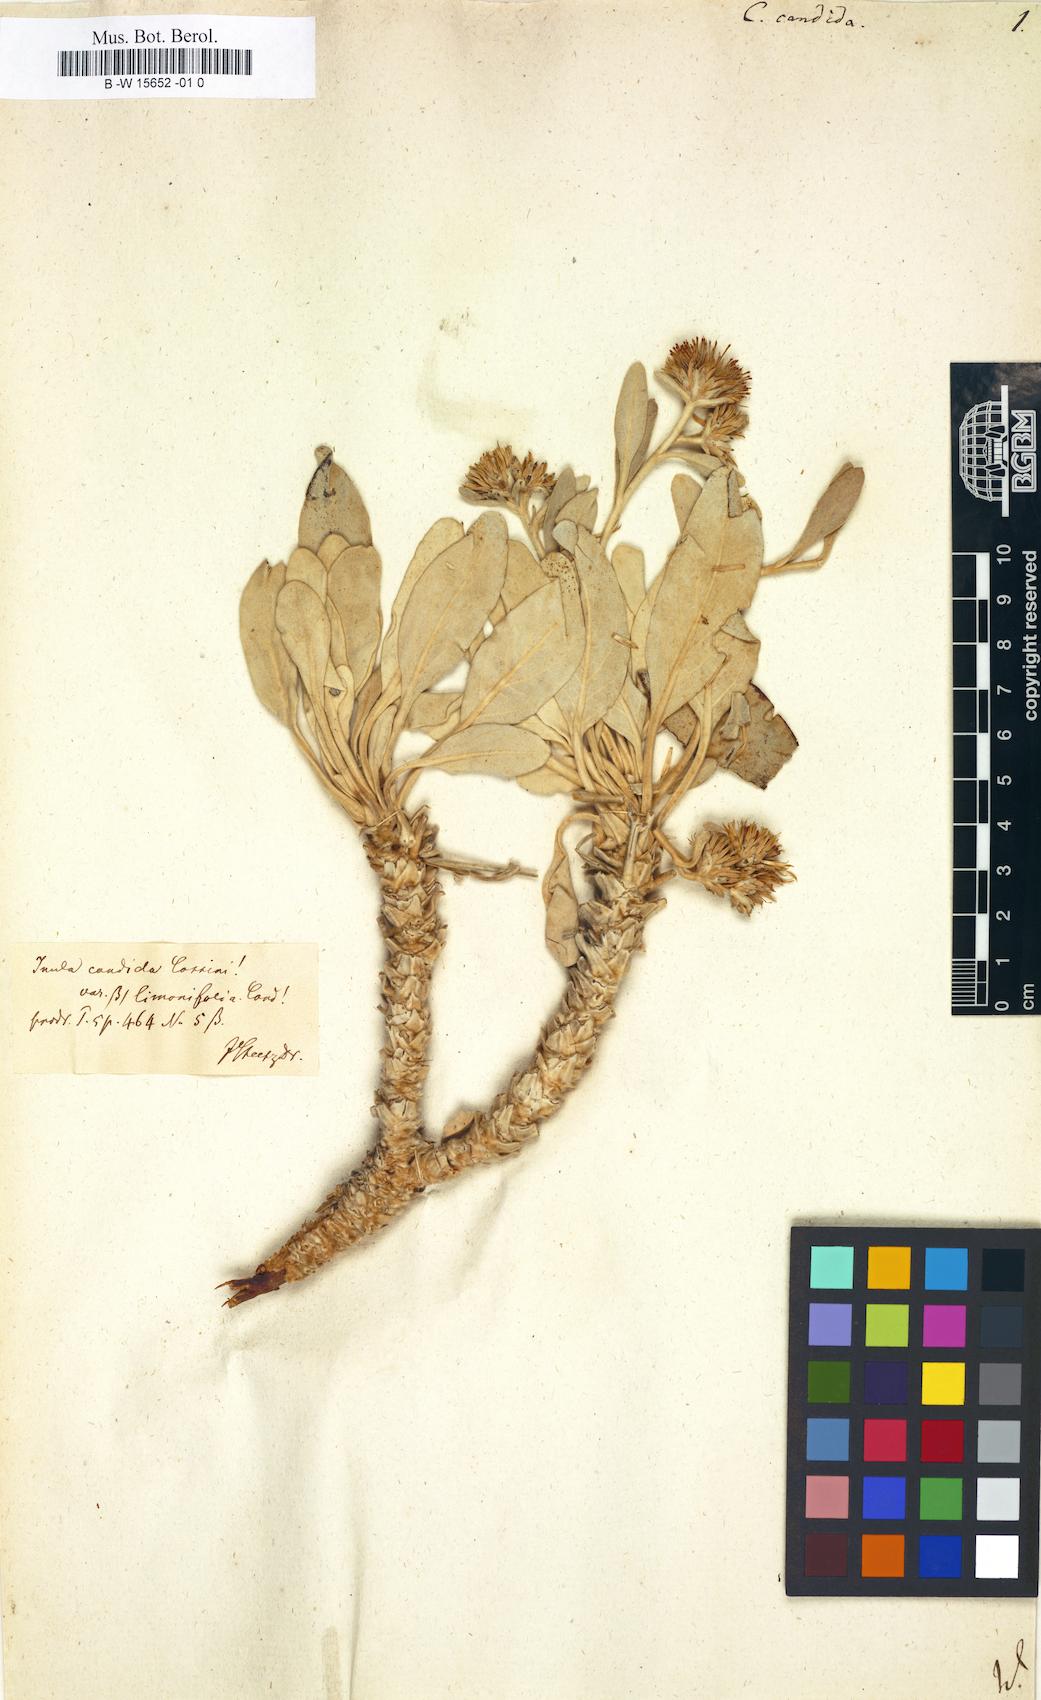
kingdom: Plantae
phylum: Tracheophyta
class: Magnoliopsida
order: Asterales
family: Asteraceae
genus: Inula
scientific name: Inula candida
